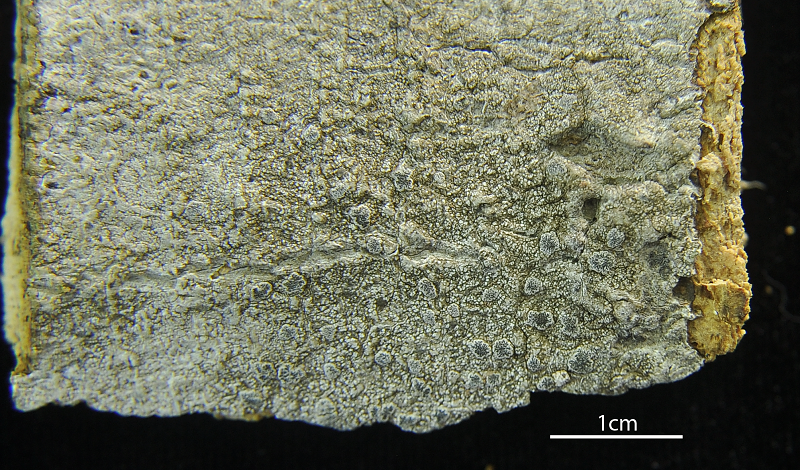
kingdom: Fungi
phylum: Ascomycota
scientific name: Ascomycota
